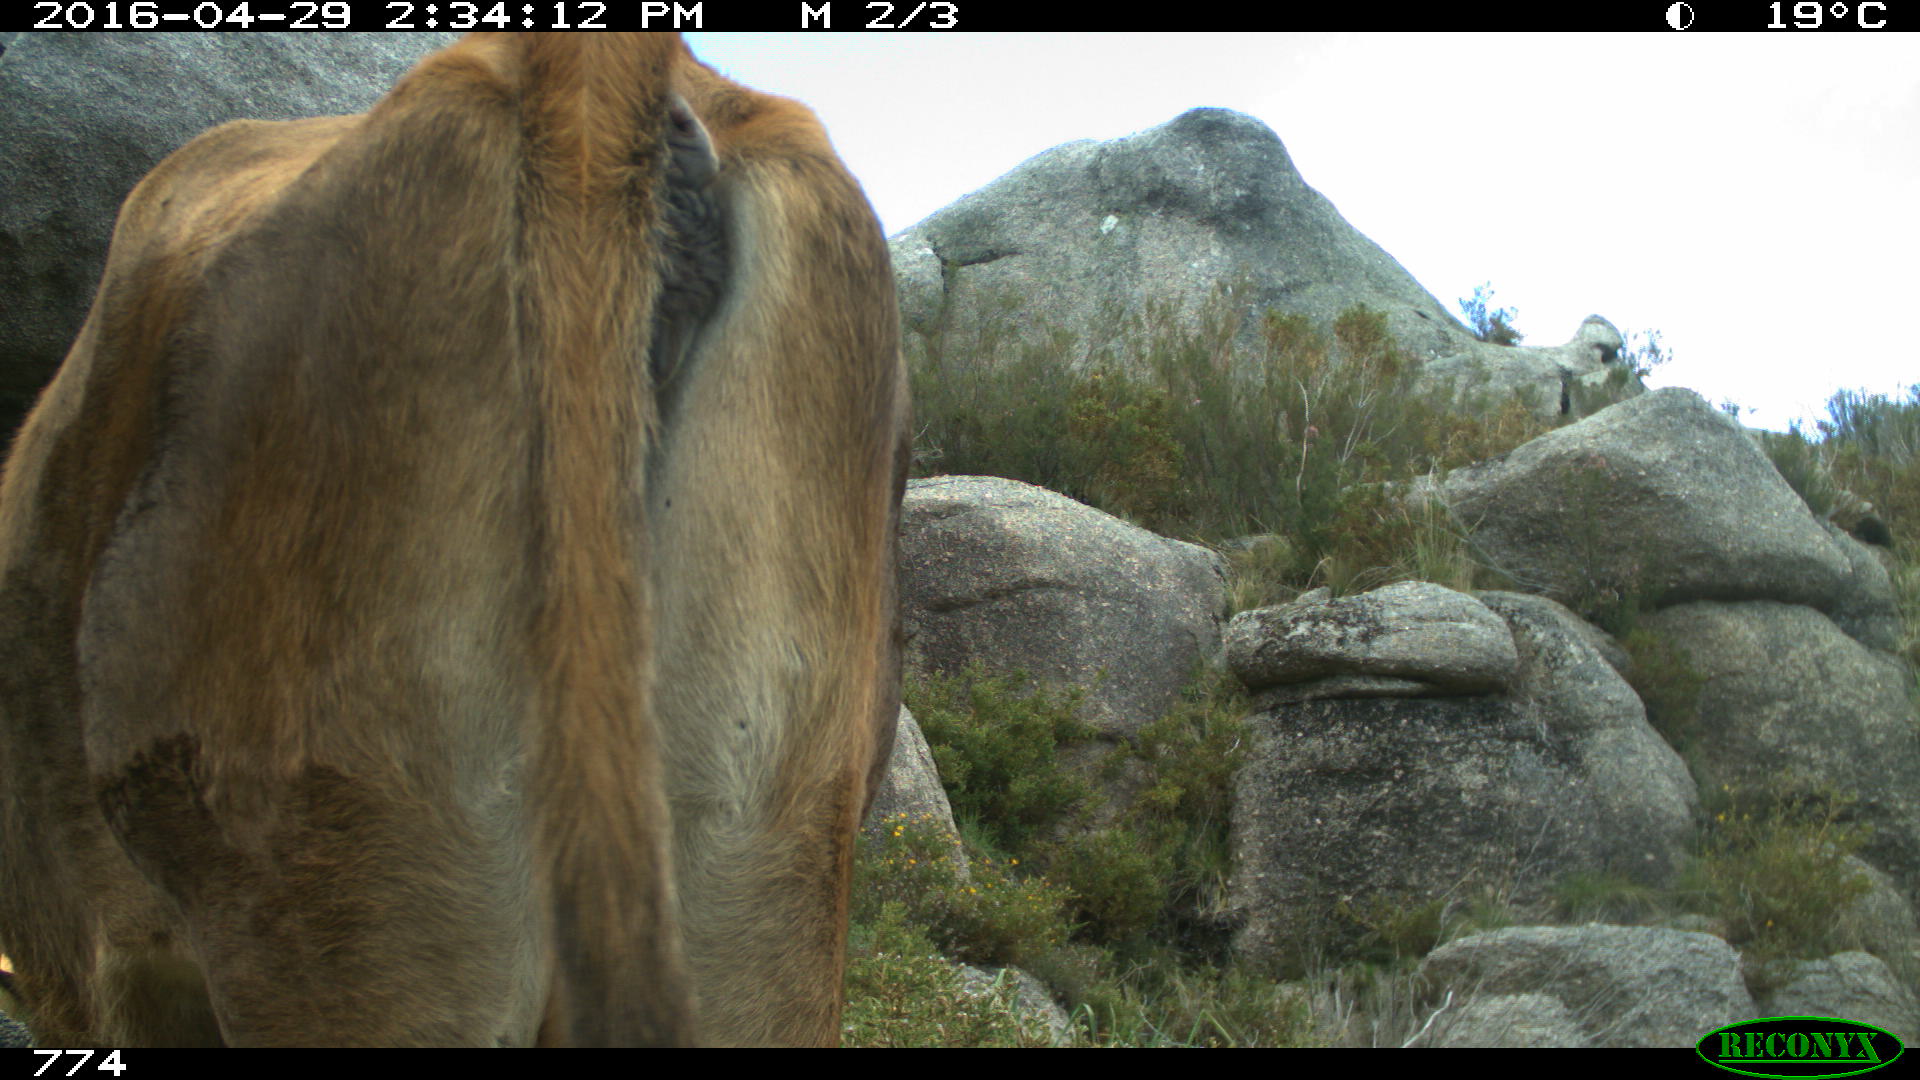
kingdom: Animalia
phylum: Chordata
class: Mammalia
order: Artiodactyla
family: Bovidae
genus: Bos
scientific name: Bos taurus
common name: Domesticated cattle
